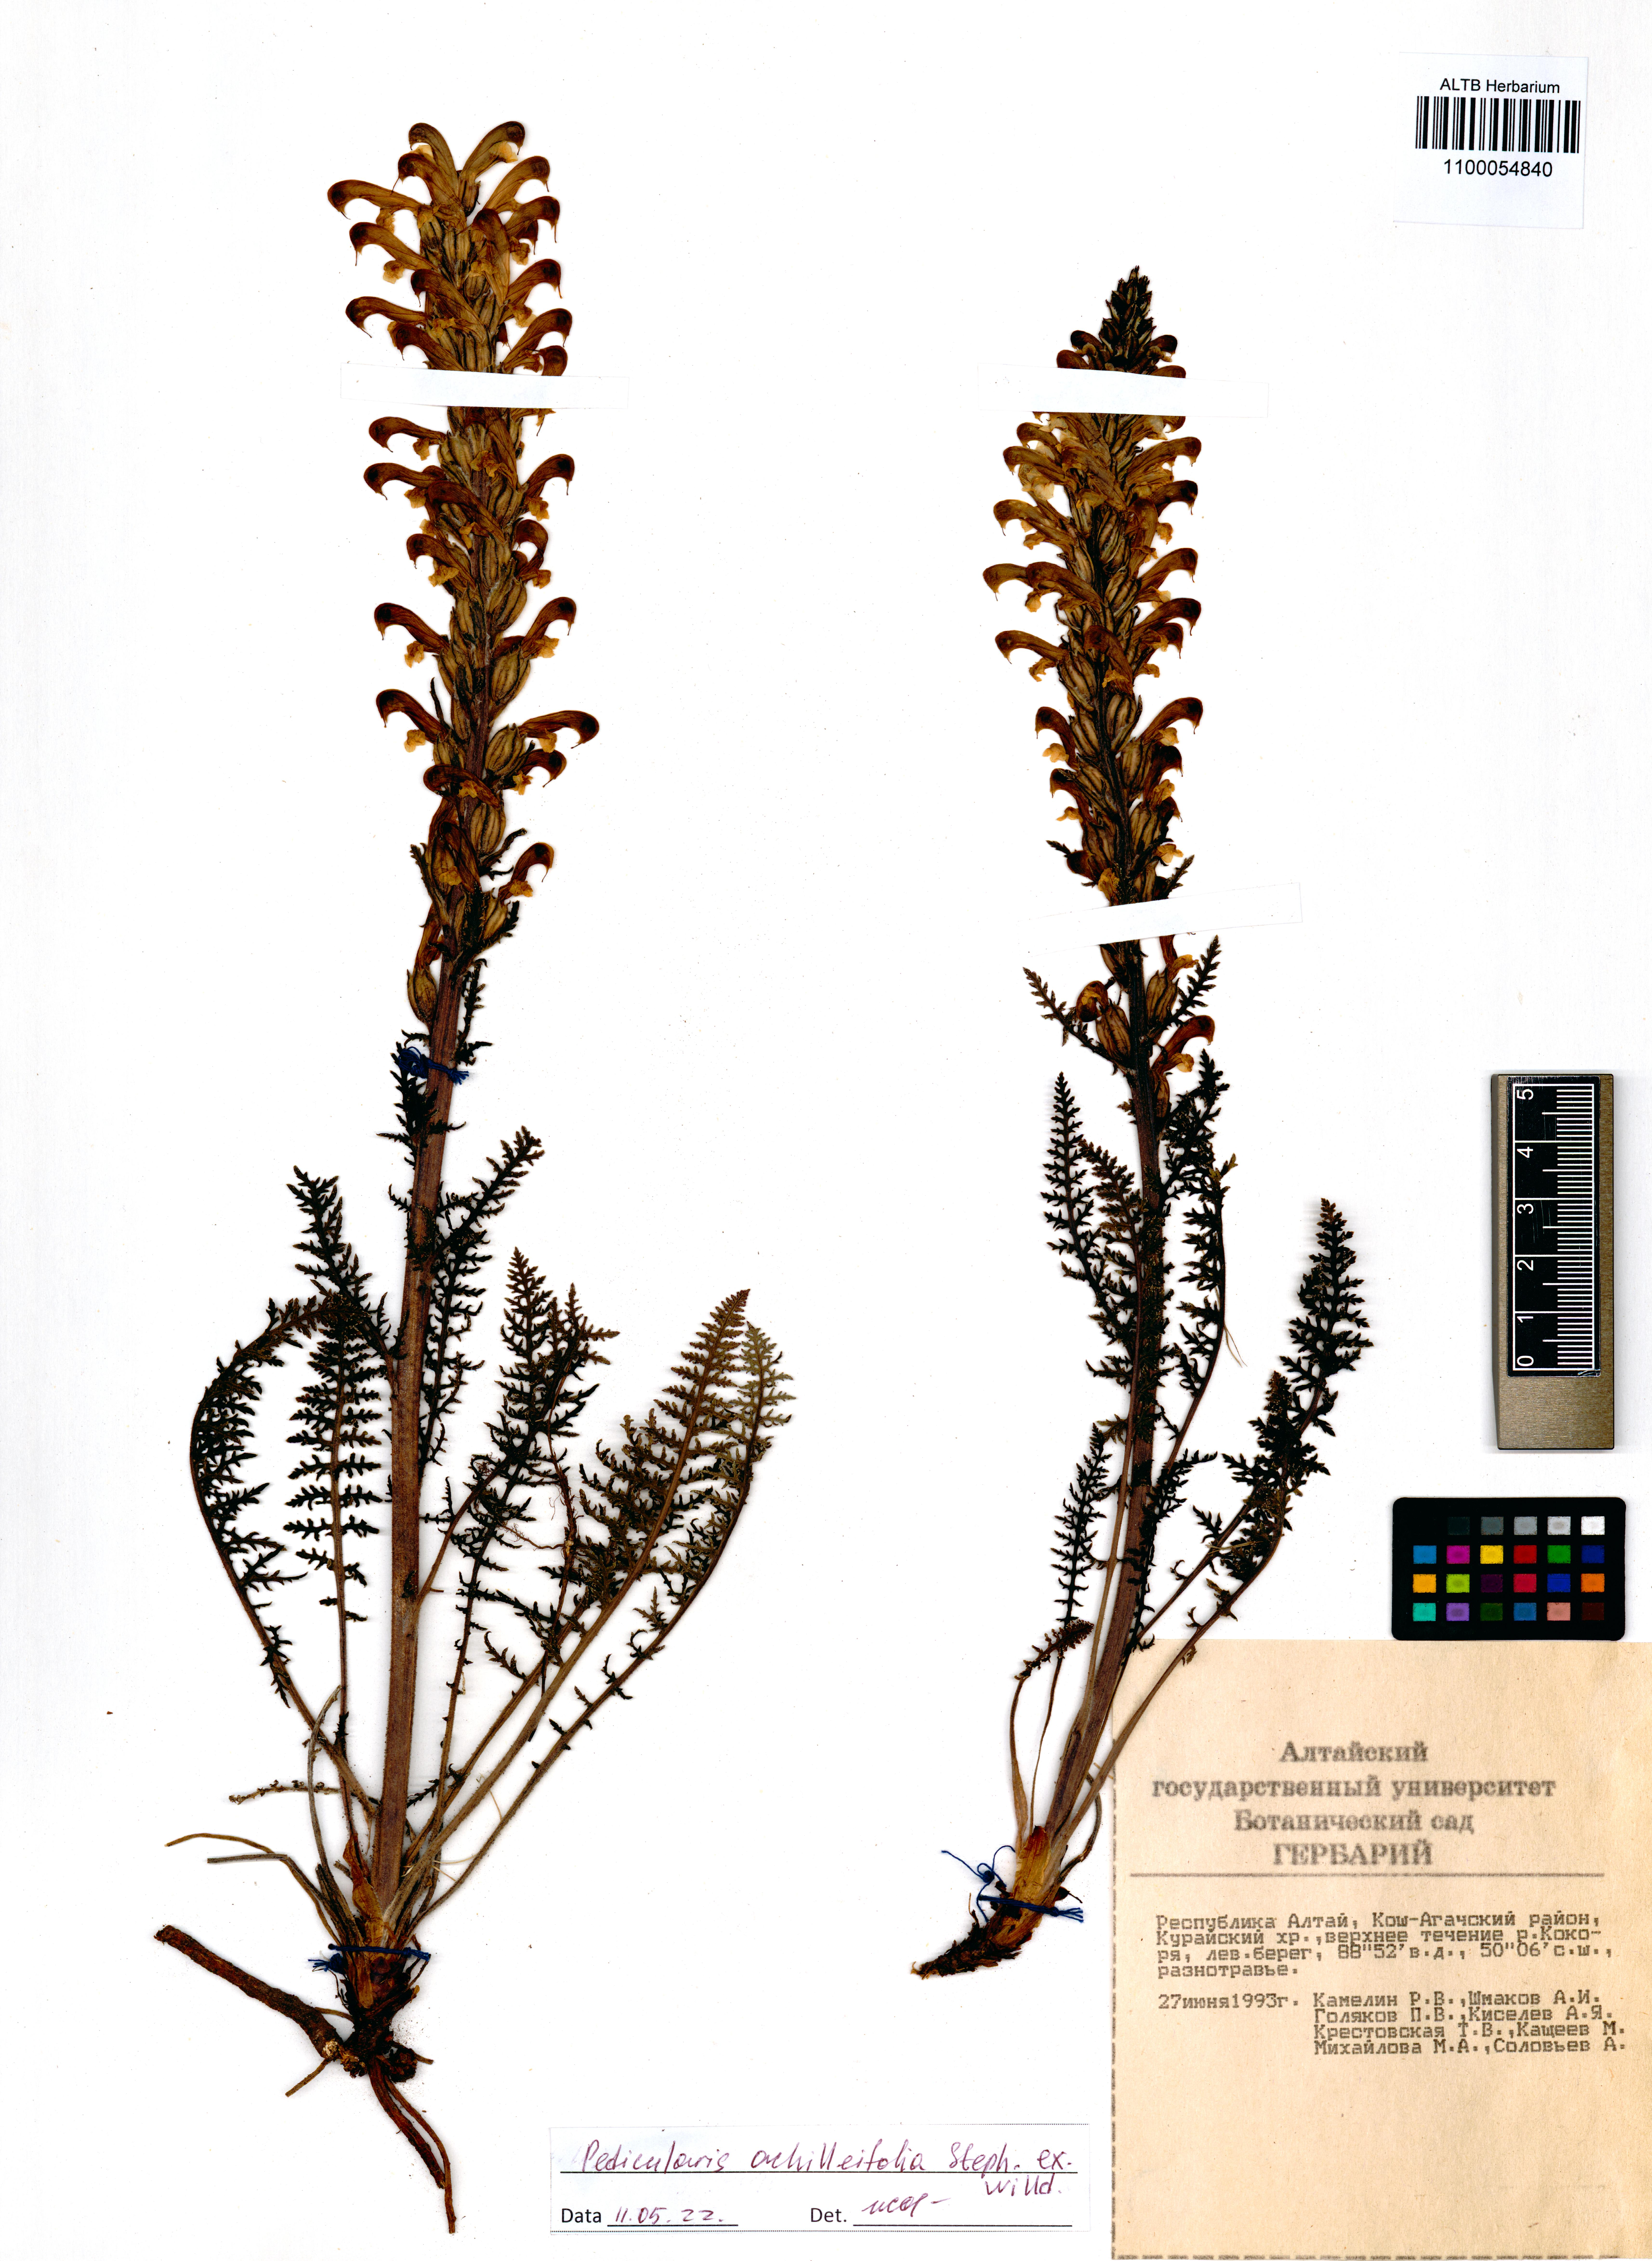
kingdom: Plantae
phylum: Tracheophyta
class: Magnoliopsida
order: Lamiales
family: Orobanchaceae
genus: Pedicularis
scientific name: Pedicularis achilleifolia
